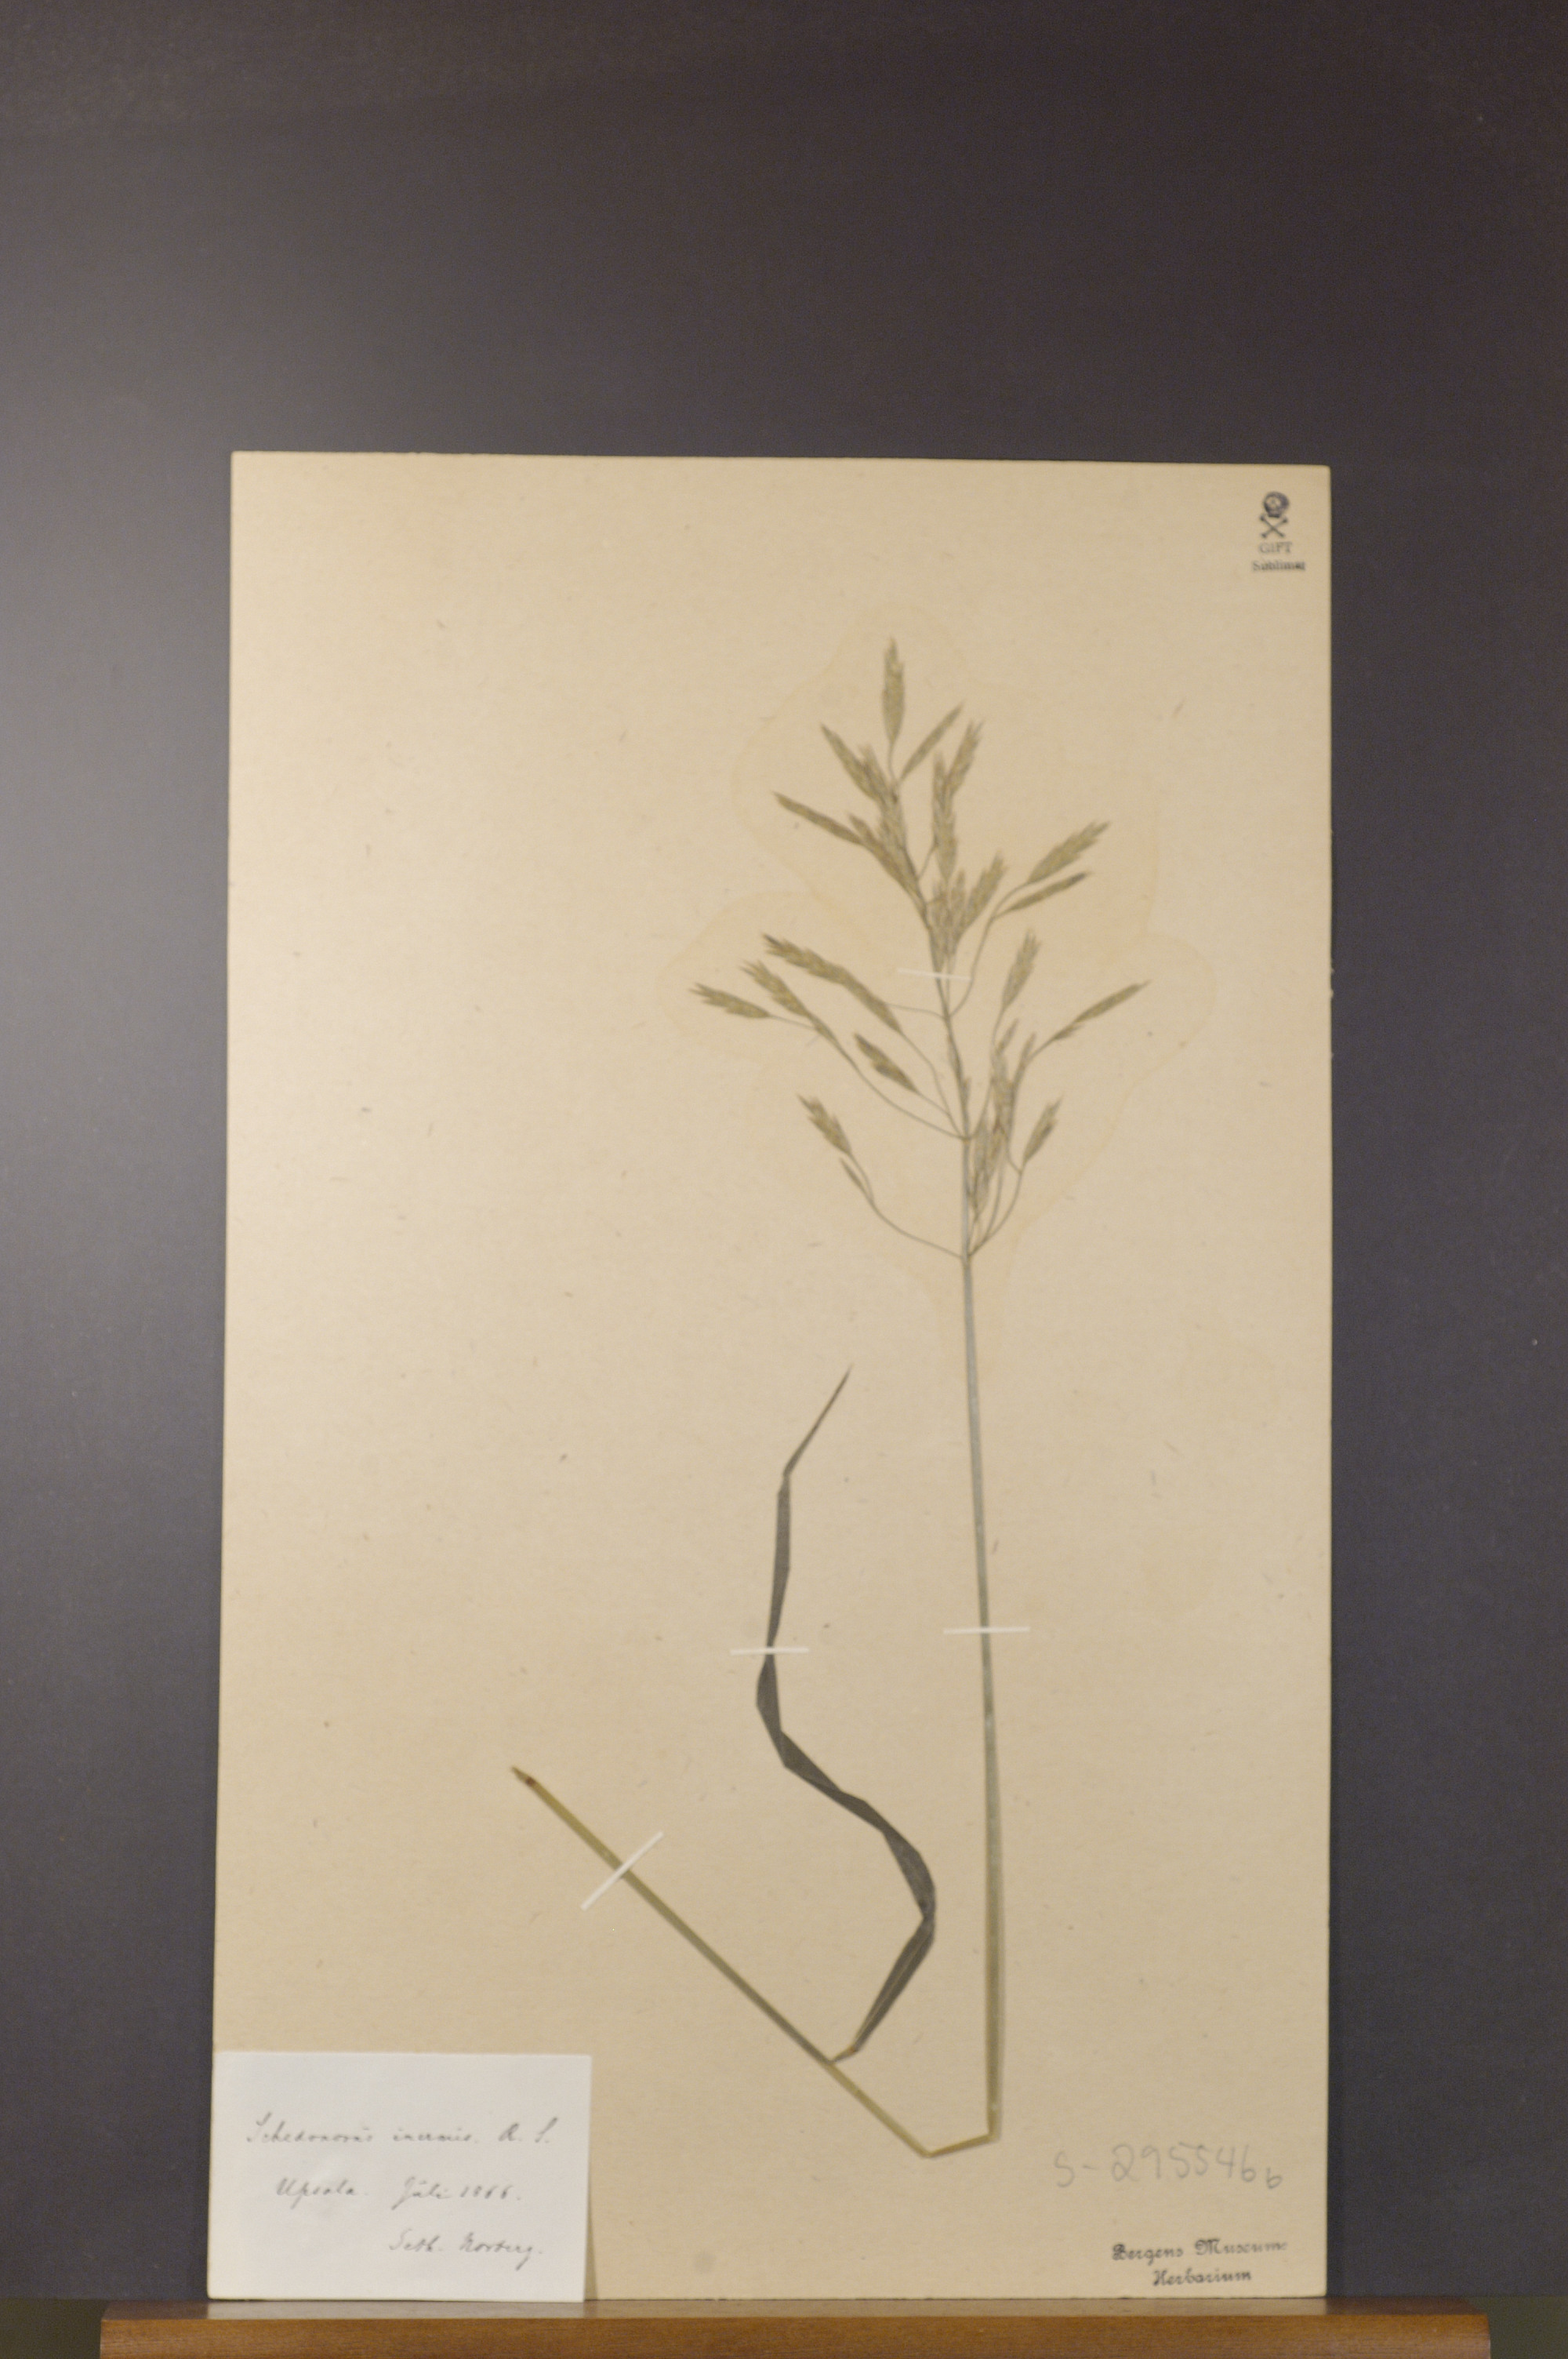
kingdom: Plantae
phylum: Tracheophyta
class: Liliopsida
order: Poales
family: Poaceae
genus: Bromus
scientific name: Bromus inermis
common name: Smooth brome
